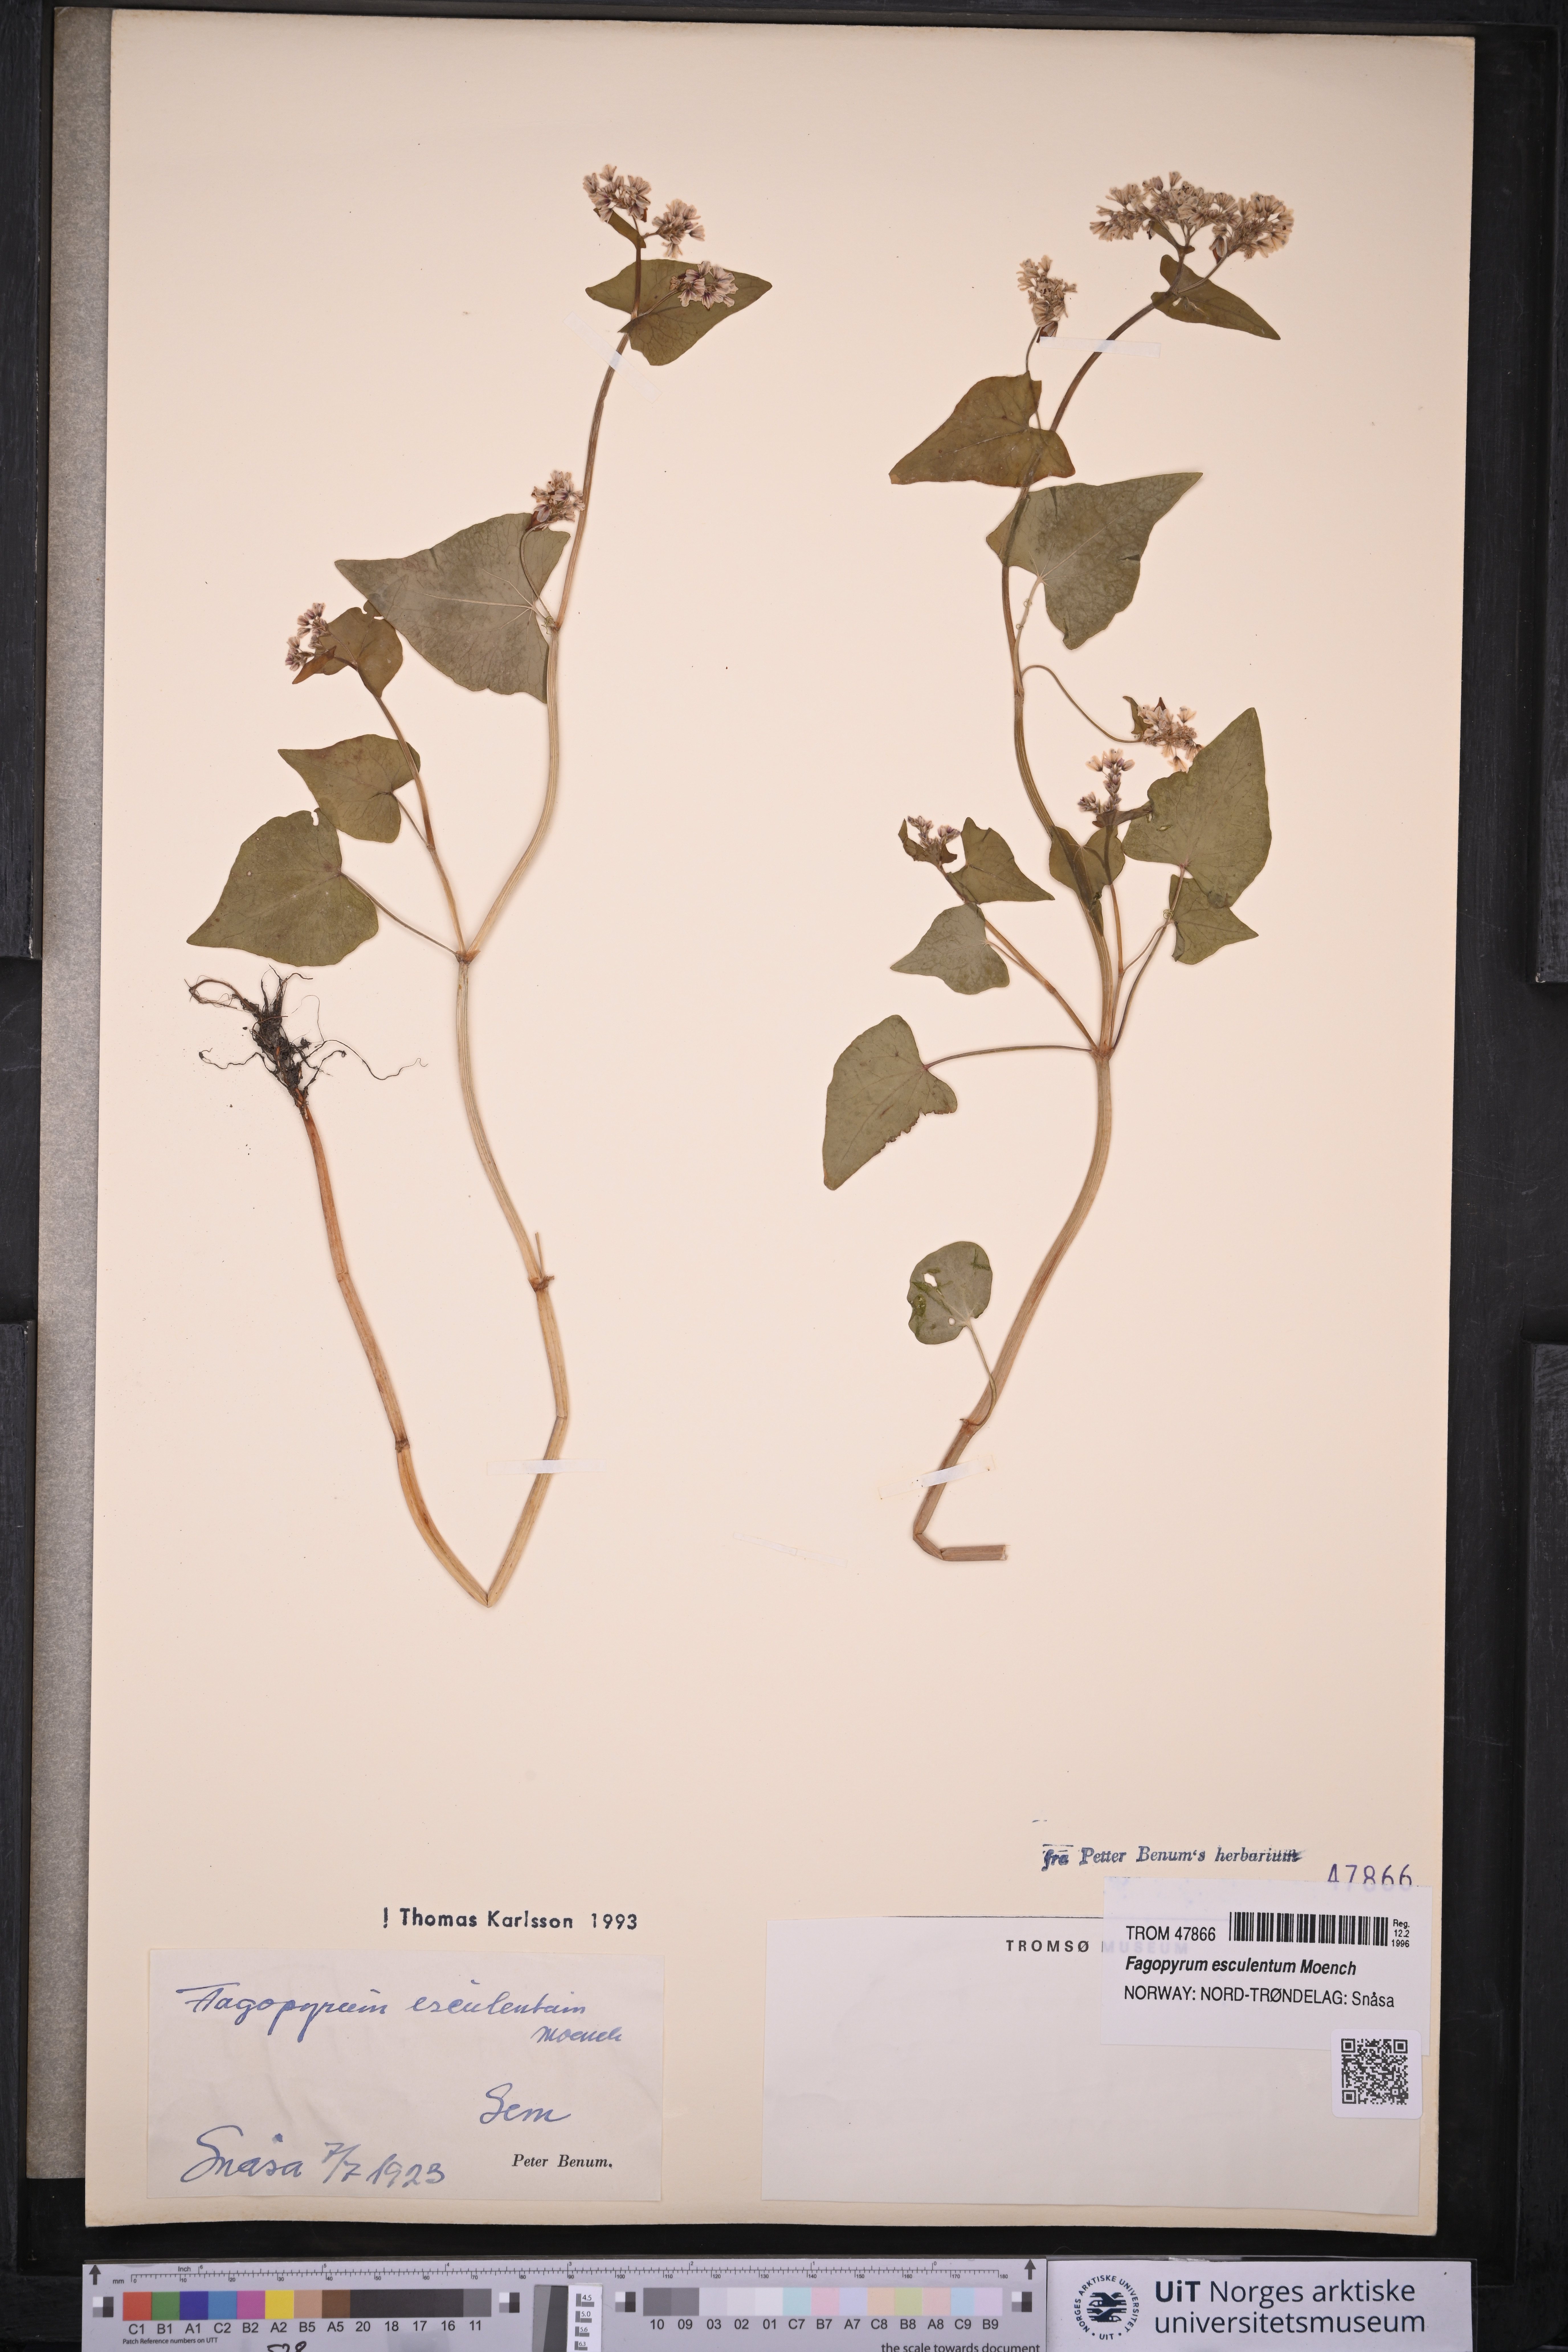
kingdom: Plantae
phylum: Tracheophyta
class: Magnoliopsida
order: Caryophyllales
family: Polygonaceae
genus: Fagopyrum
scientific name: Fagopyrum esculentum
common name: Buckwheat
